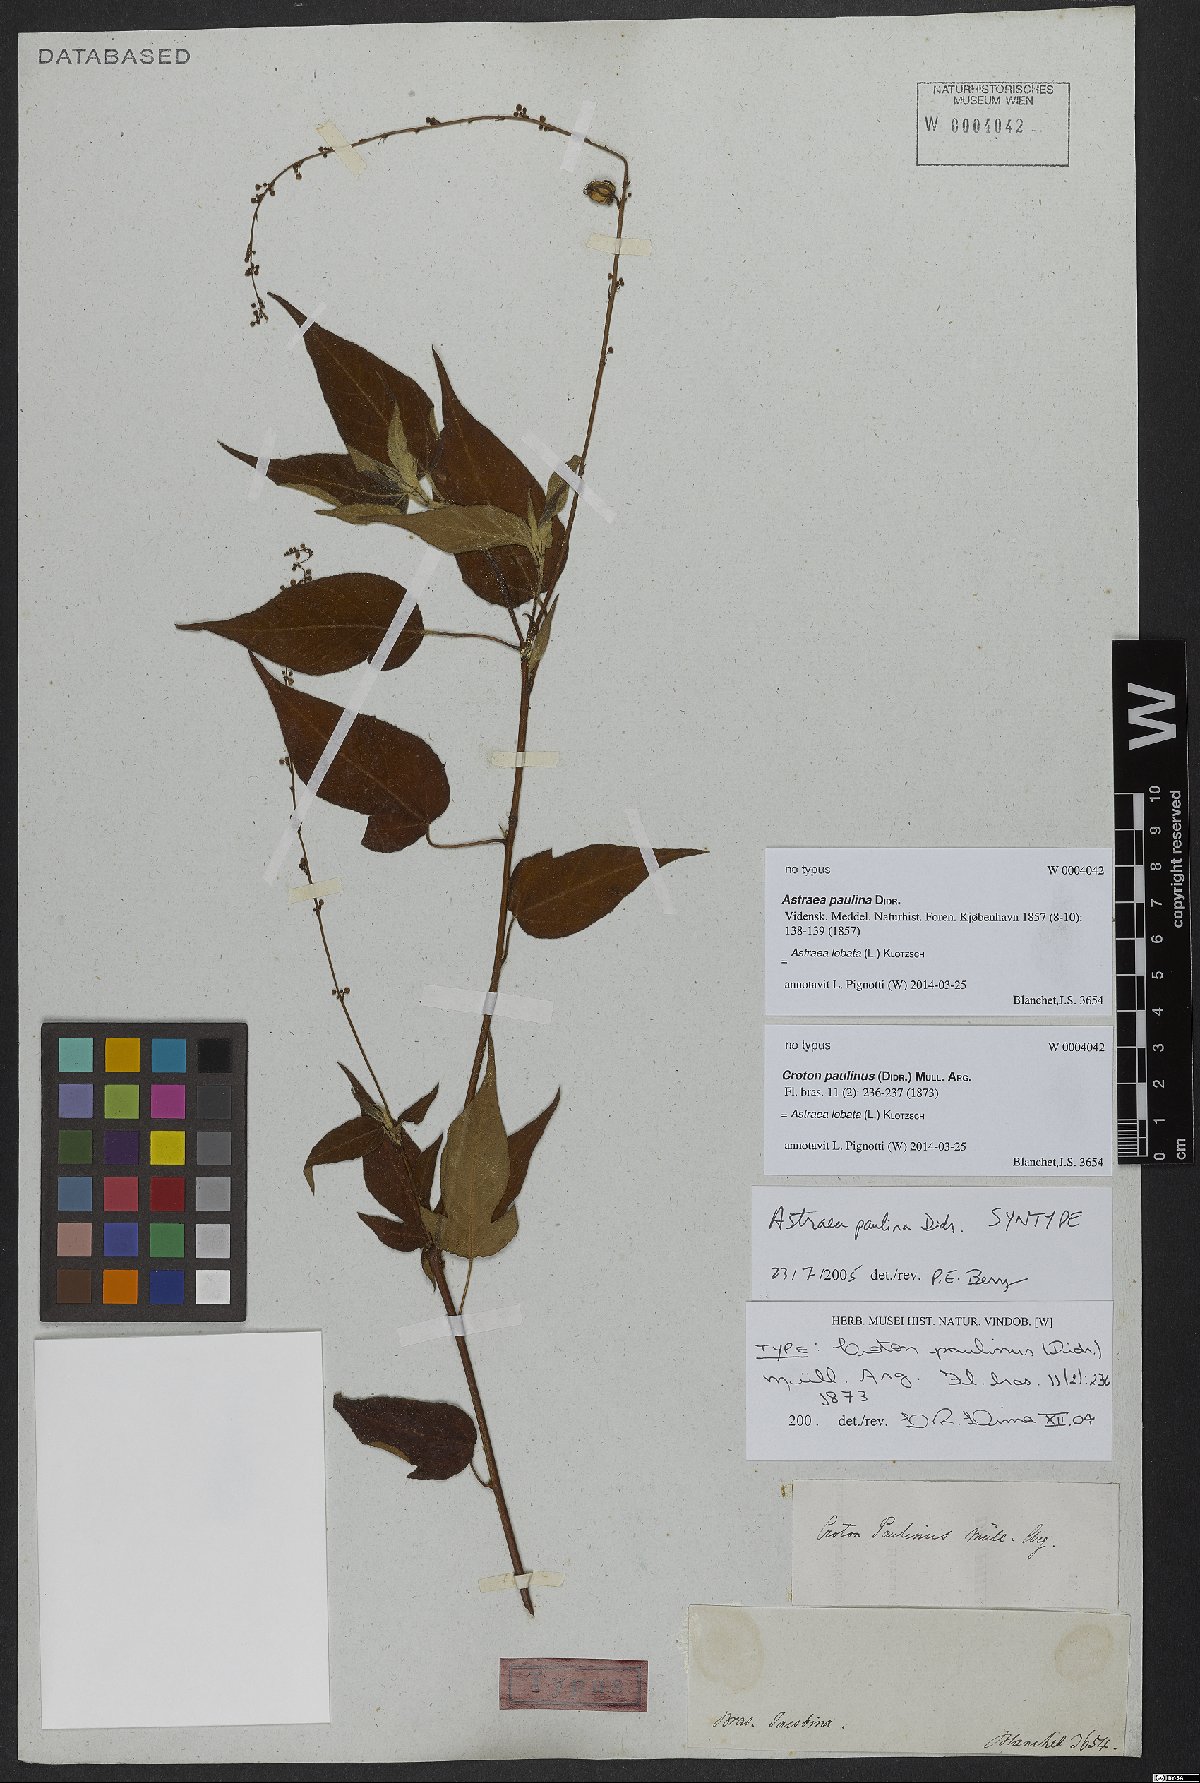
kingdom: Plantae
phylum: Tracheophyta
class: Magnoliopsida
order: Malpighiales
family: Euphorbiaceae
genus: Astraea
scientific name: Astraea lobata
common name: Lobed croton
